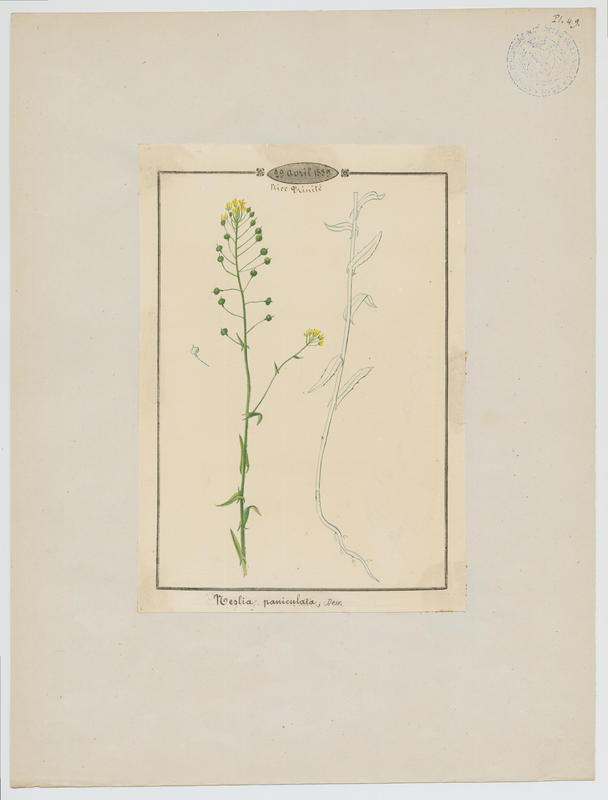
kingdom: Plantae
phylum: Tracheophyta
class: Magnoliopsida
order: Brassicales
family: Brassicaceae
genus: Neslia
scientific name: Neslia paniculata
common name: Ball mustard
